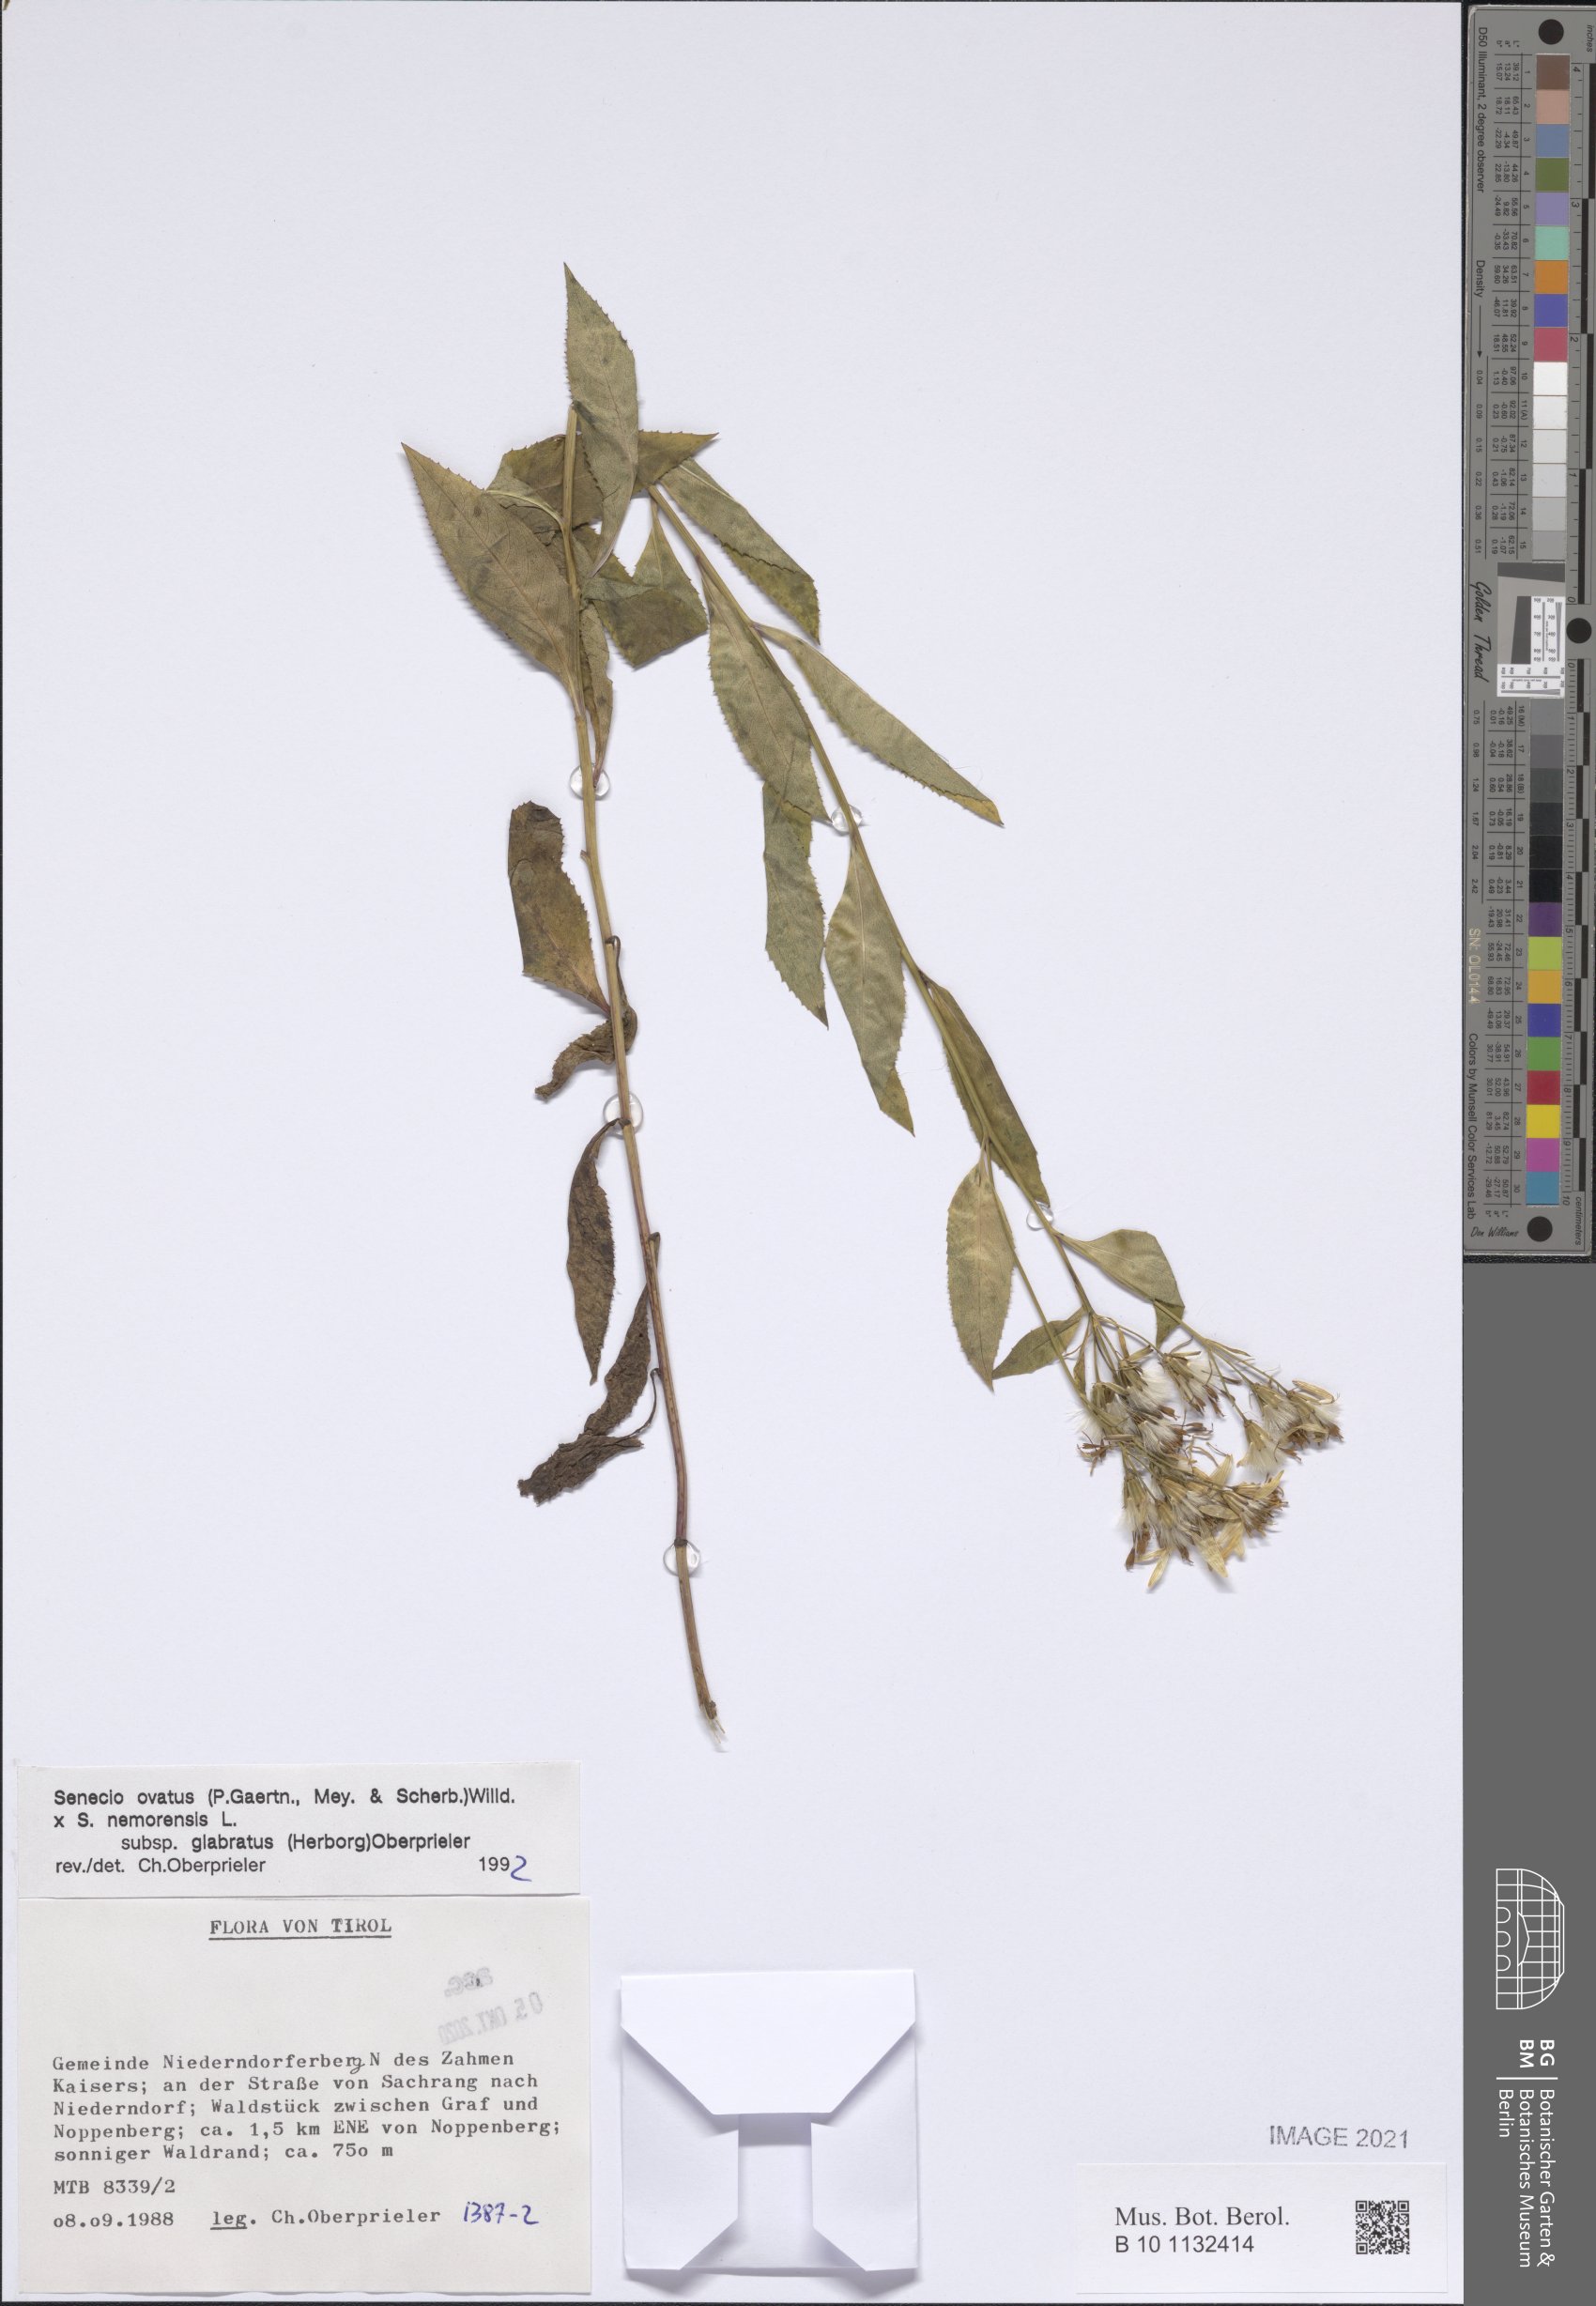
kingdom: Plantae
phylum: Tracheophyta
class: Magnoliopsida
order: Asterales
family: Asteraceae
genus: Senecio
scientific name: Senecio ovatus
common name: Wood ragwort
